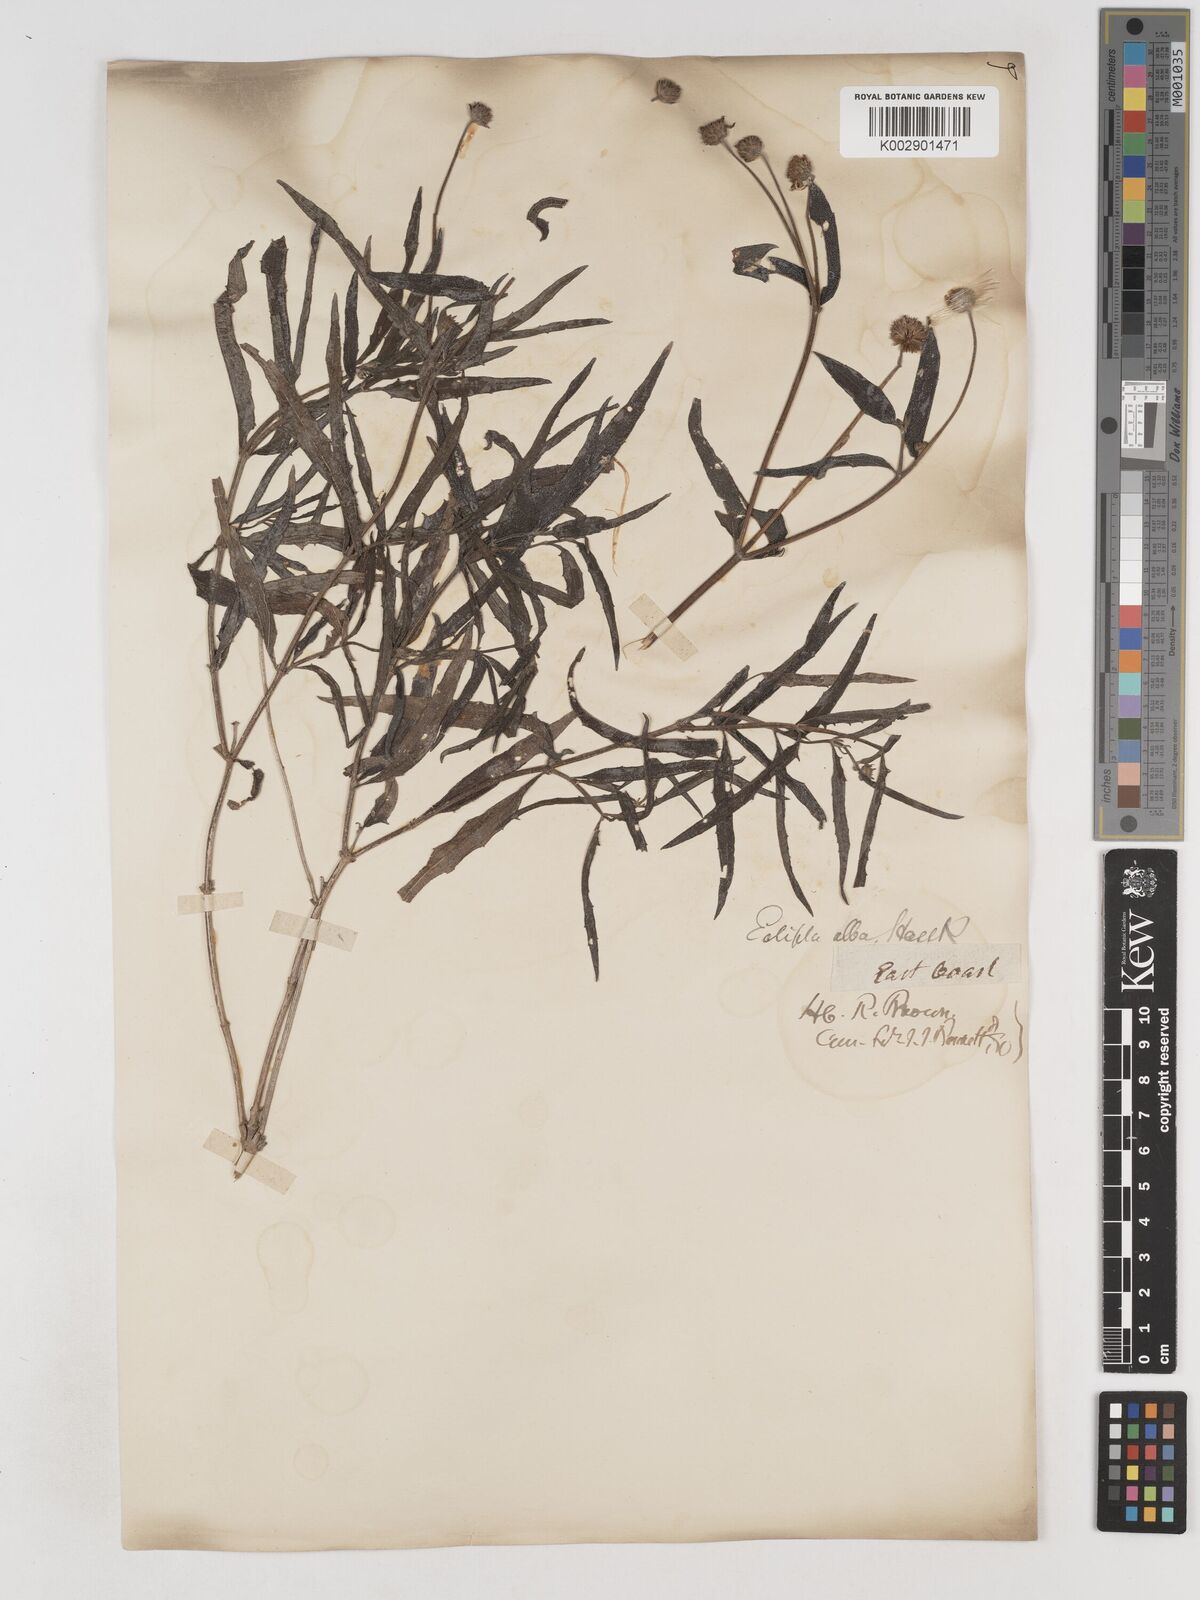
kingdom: Plantae
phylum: Tracheophyta
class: Magnoliopsida
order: Asterales
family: Asteraceae
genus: Eclipta
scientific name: Eclipta alba
